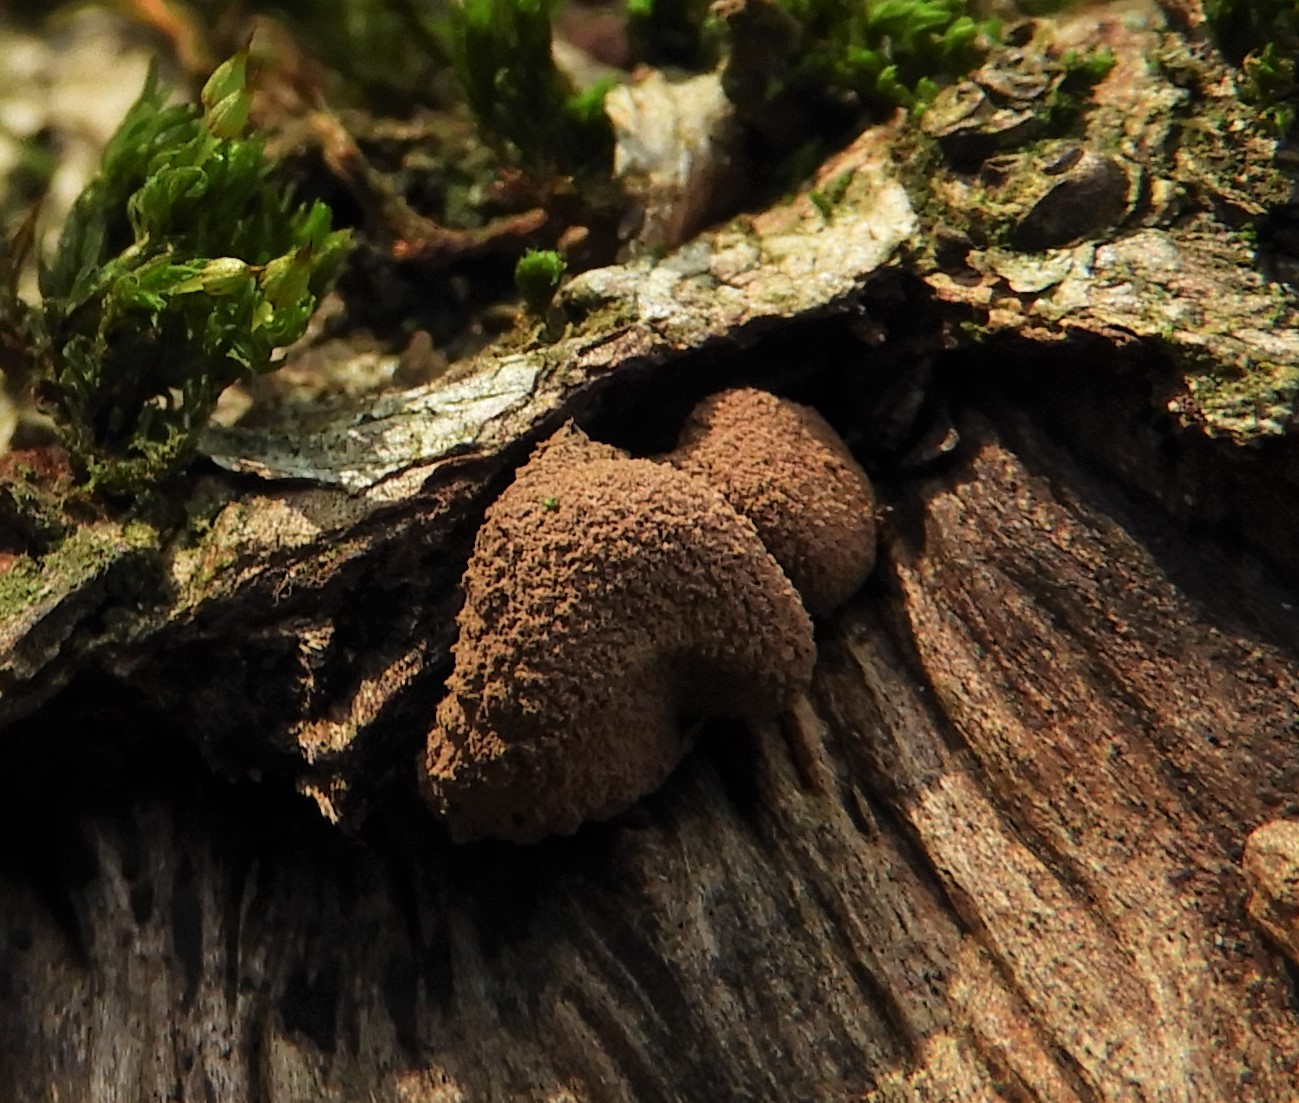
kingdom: Fungi
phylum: Ascomycota
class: Leotiomycetes
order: Helotiales
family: Cenangiaceae
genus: Encoelia
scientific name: Encoelia furfuracea
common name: hassel-læderskive
